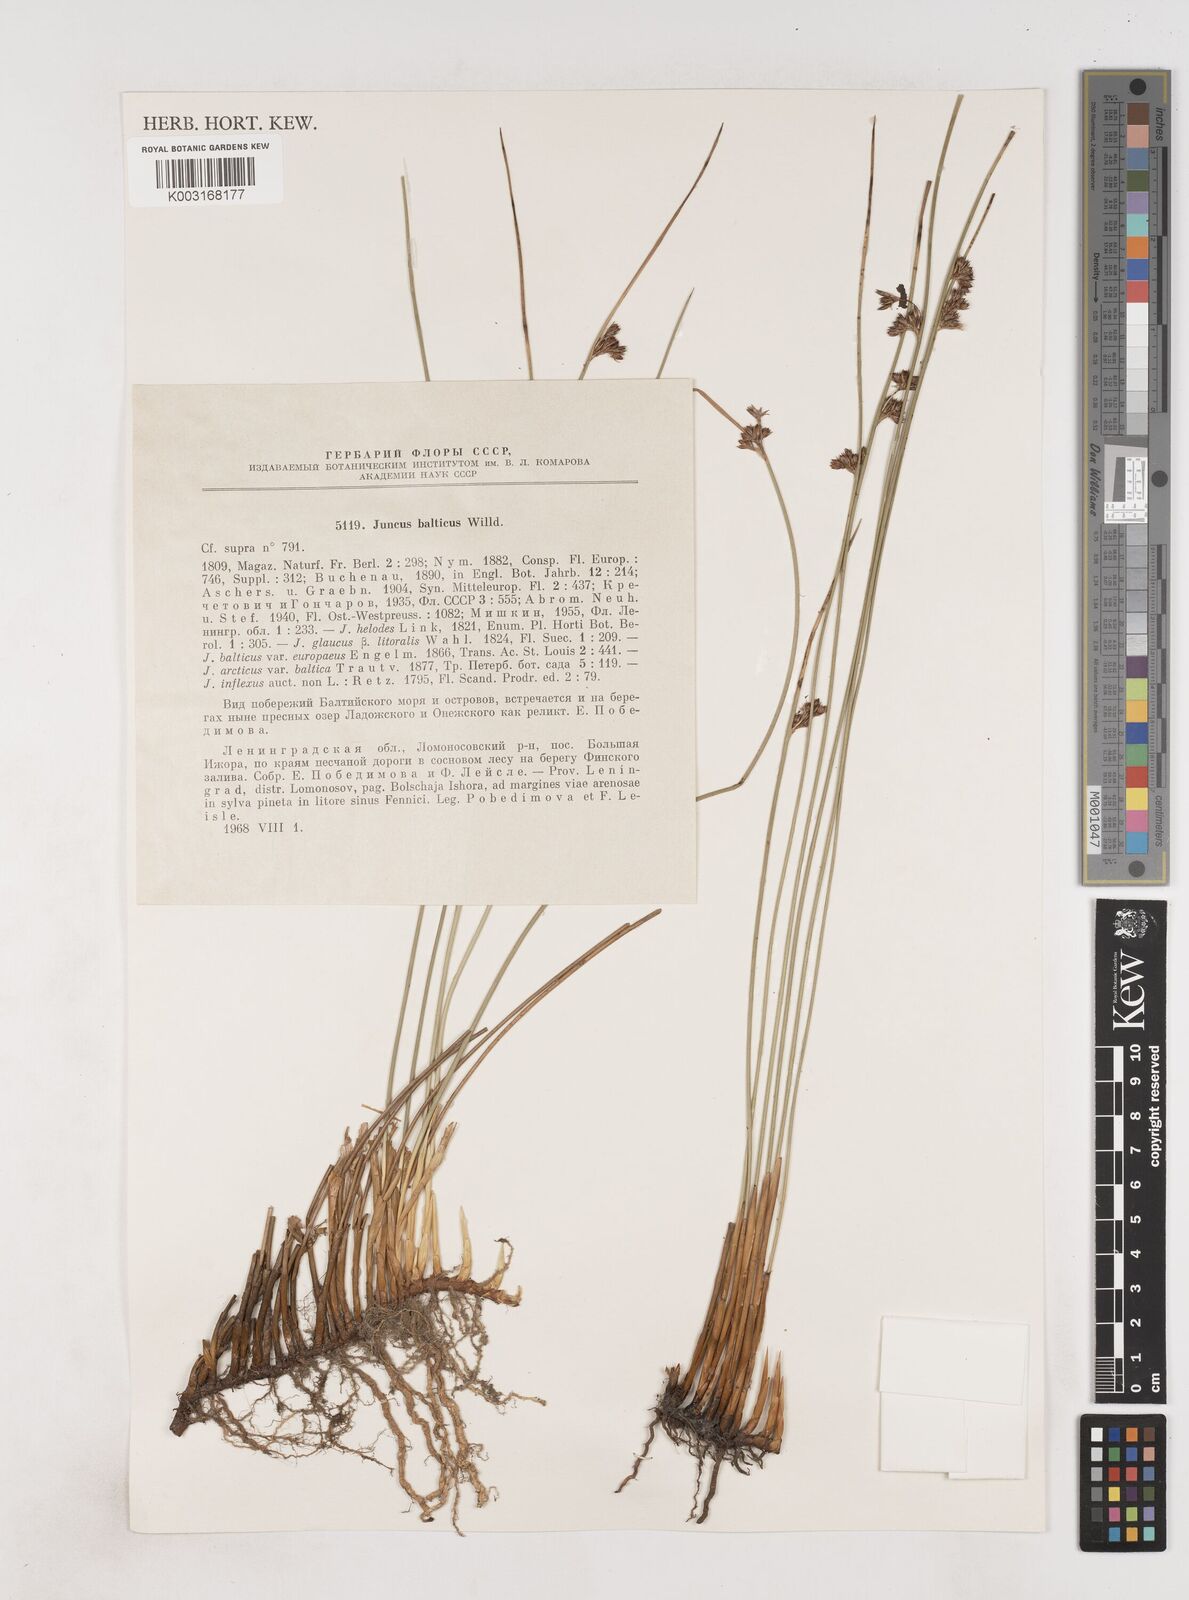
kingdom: Plantae
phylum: Tracheophyta
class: Liliopsida
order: Poales
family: Juncaceae
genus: Juncus
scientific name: Juncus balticus
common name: Baltic rush
